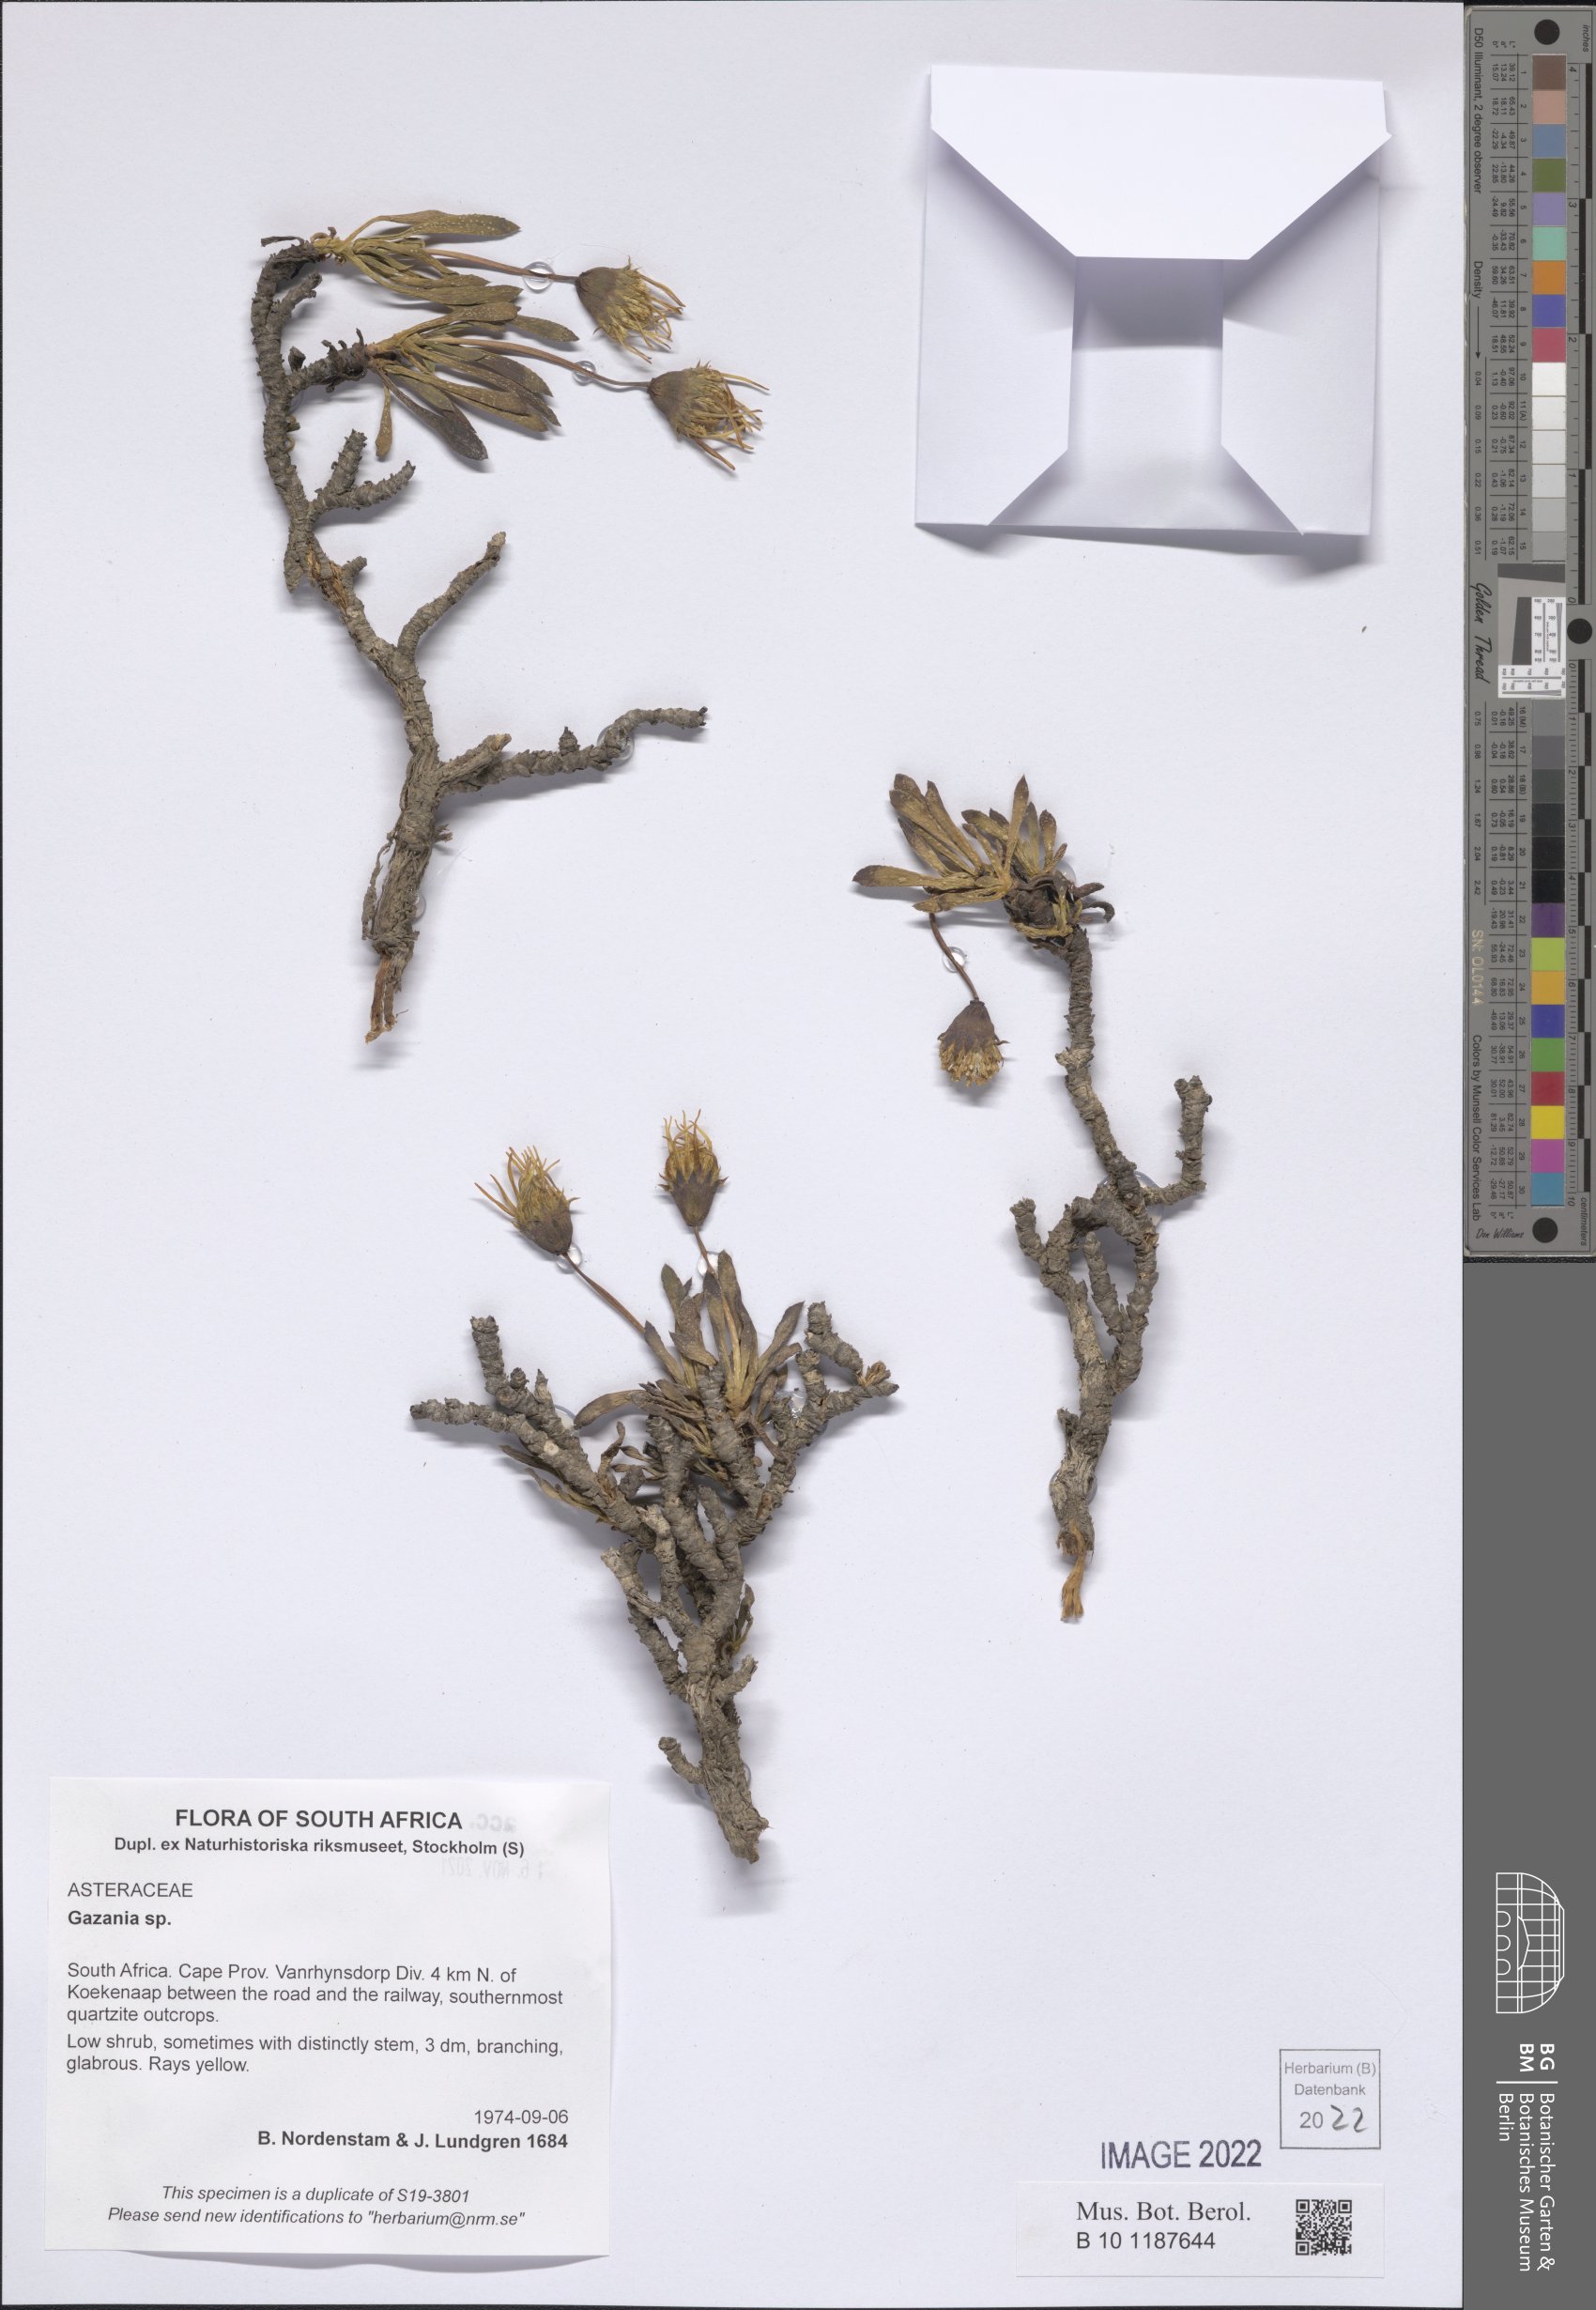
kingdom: Plantae
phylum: Tracheophyta
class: Magnoliopsida
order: Asterales
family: Asteraceae
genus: Gazania
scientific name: Gazania
